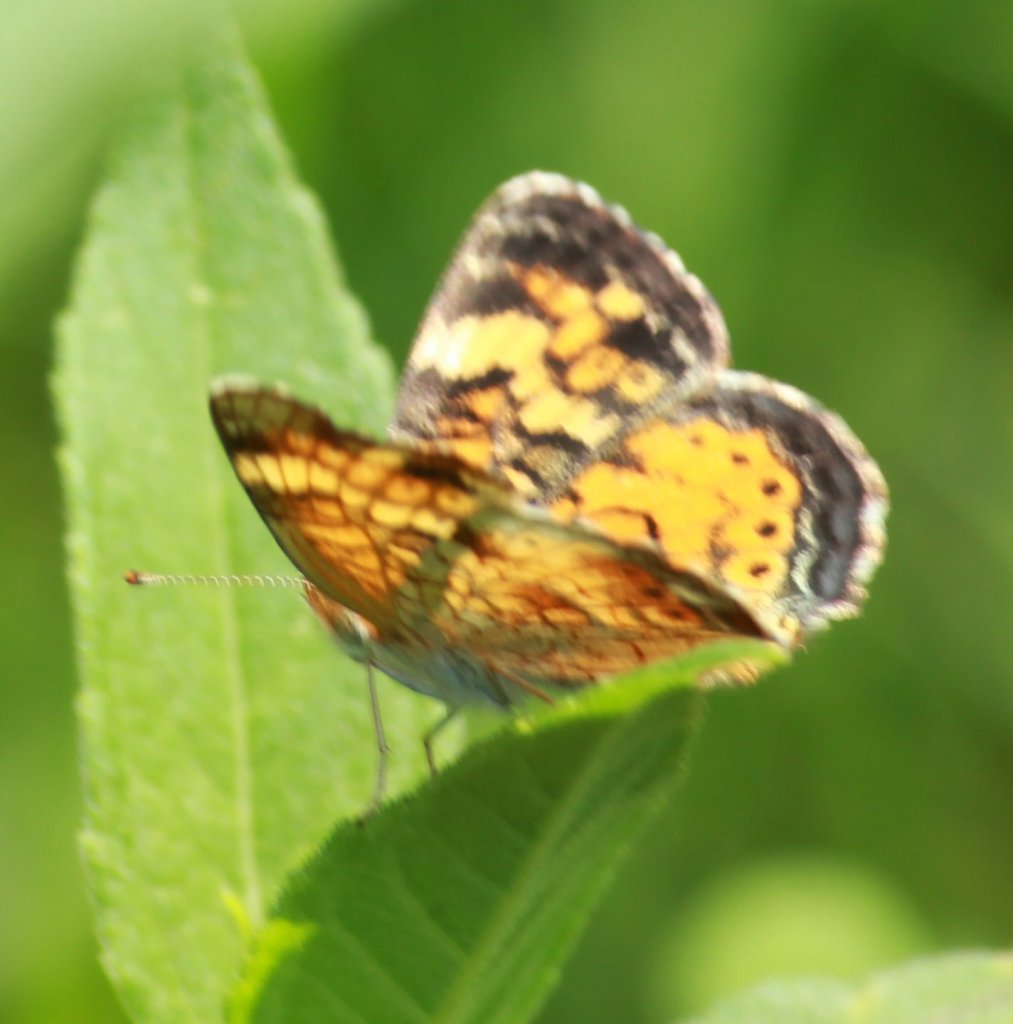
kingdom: Animalia
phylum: Arthropoda
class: Insecta
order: Lepidoptera
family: Nymphalidae
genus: Phyciodes
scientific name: Phyciodes tharos
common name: Northern Crescent
